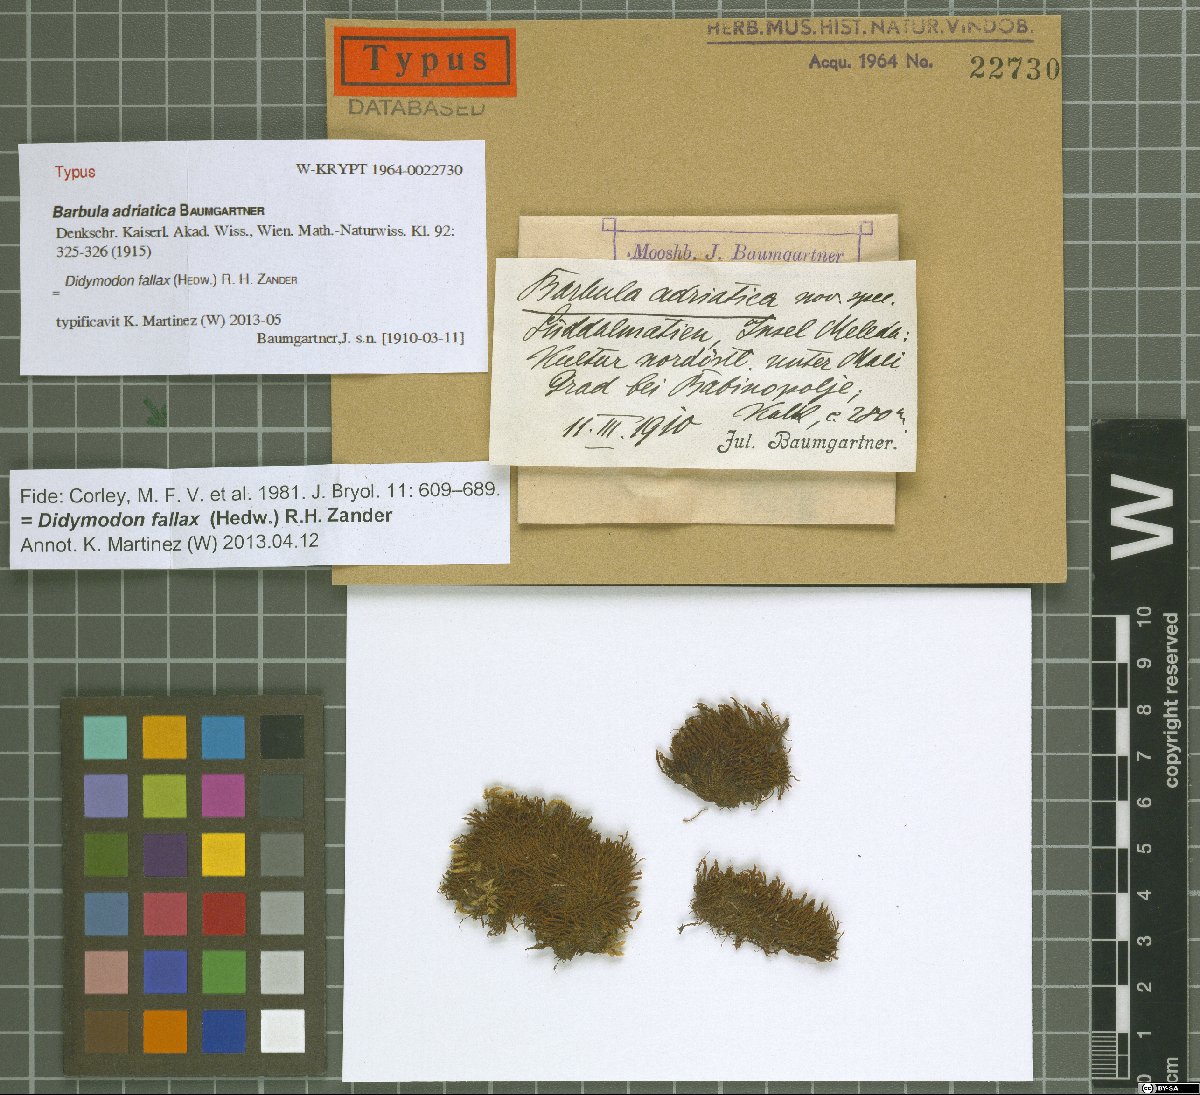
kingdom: Plantae
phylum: Bryophyta
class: Bryopsida
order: Pottiales
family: Pottiaceae
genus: Geheebia
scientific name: Geheebia fallax
